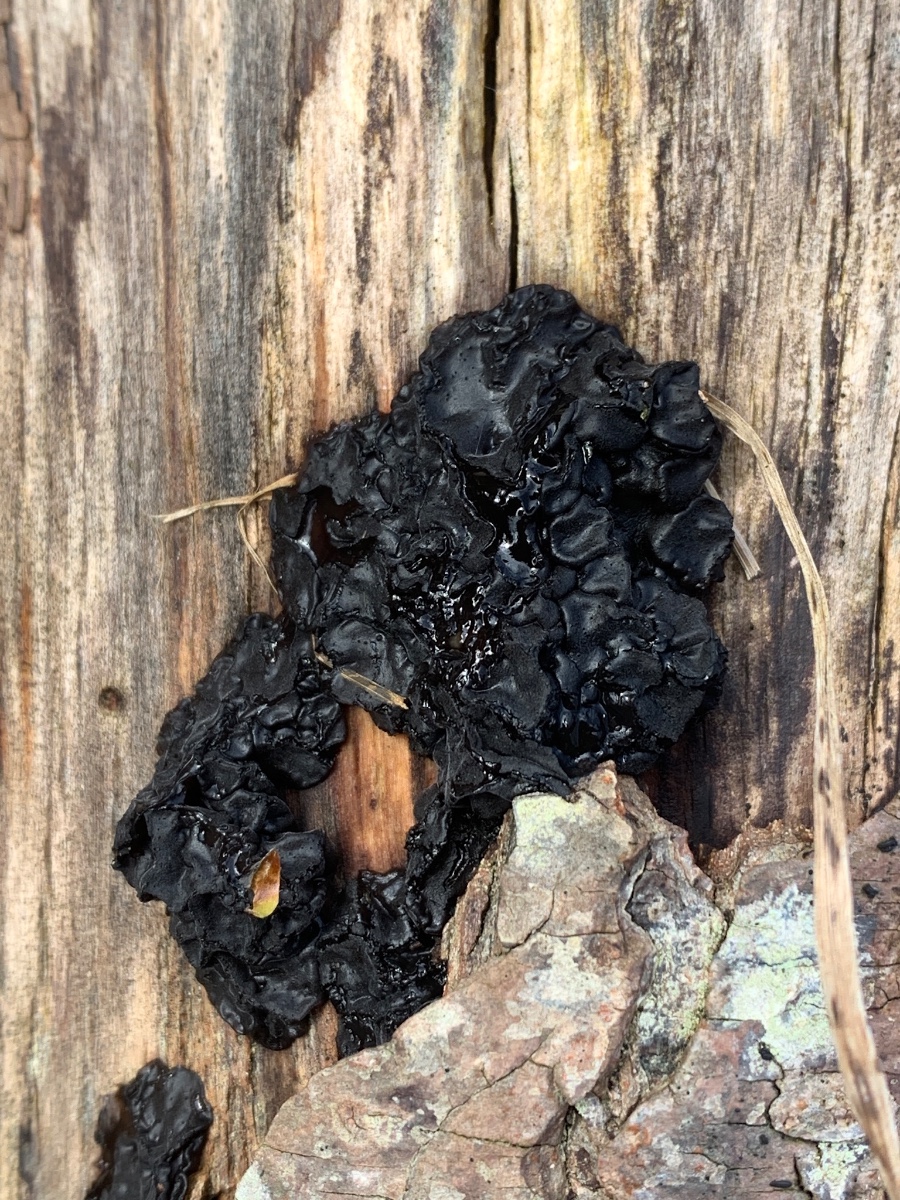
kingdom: Fungi
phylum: Basidiomycota
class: Agaricomycetes
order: Auriculariales
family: Auriculariaceae
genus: Exidia
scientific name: Exidia nigricans
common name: almindelig bævretop
